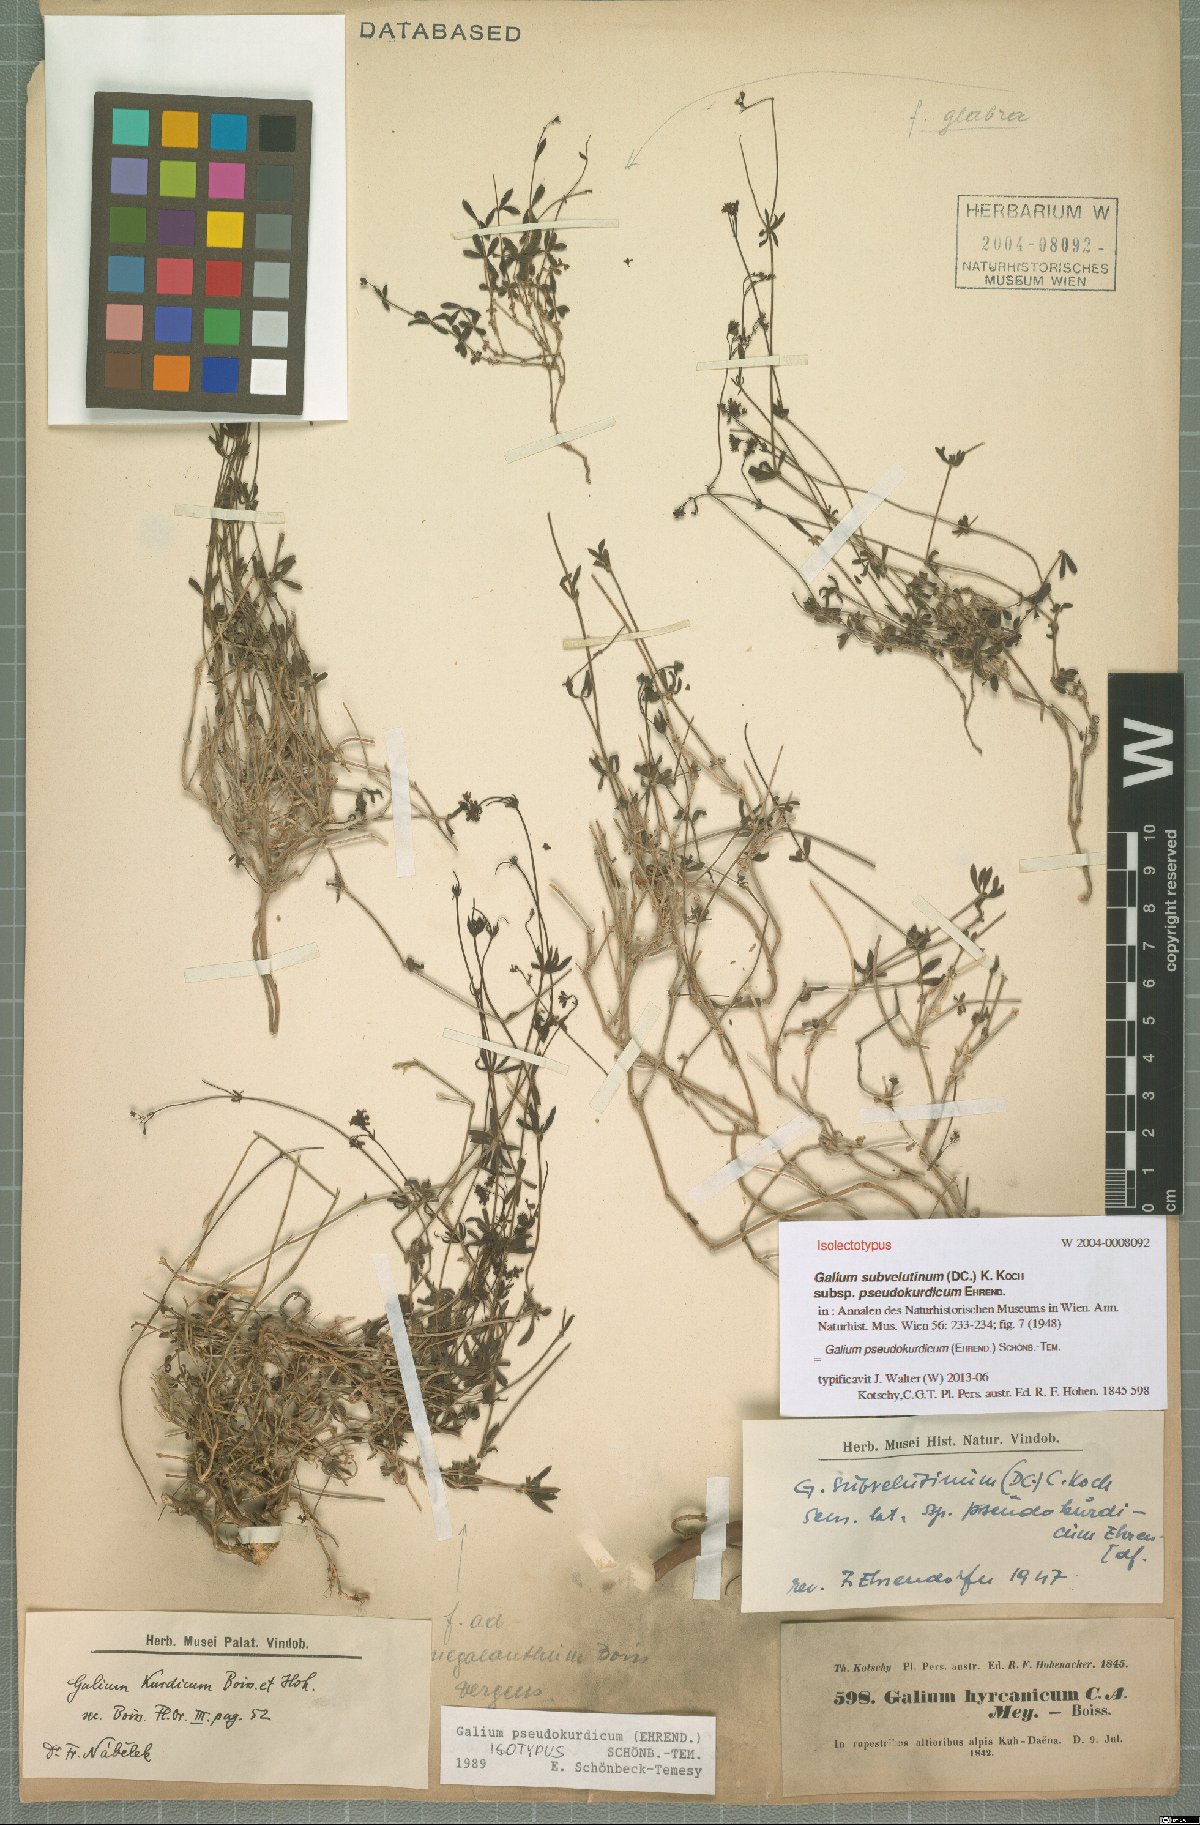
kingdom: Plantae
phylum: Tracheophyta
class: Magnoliopsida
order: Gentianales
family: Rubiaceae
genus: Galium
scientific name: Galium pseudokurdicum
